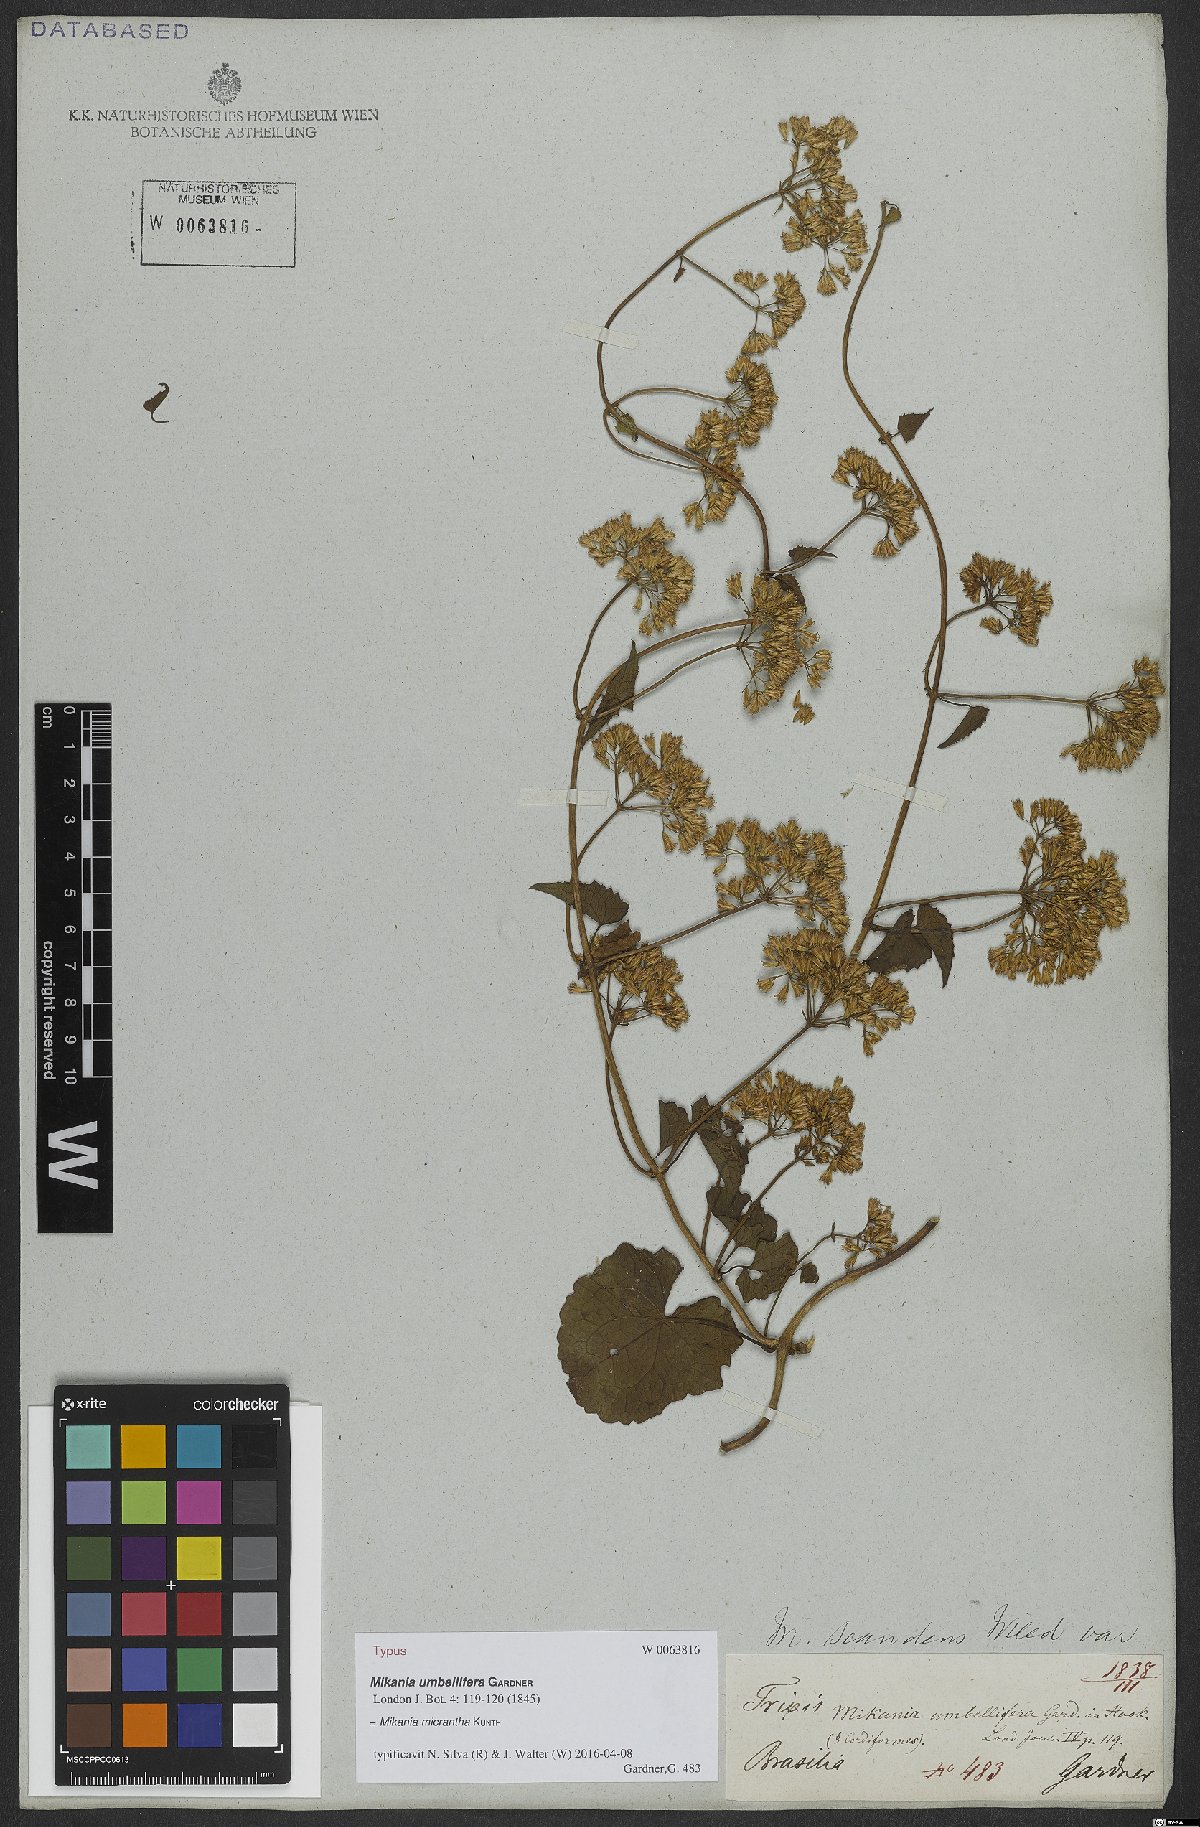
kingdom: Plantae
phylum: Tracheophyta
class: Magnoliopsida
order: Asterales
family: Asteraceae
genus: Mikania
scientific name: Mikania micrantha
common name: Mile-a-minute
